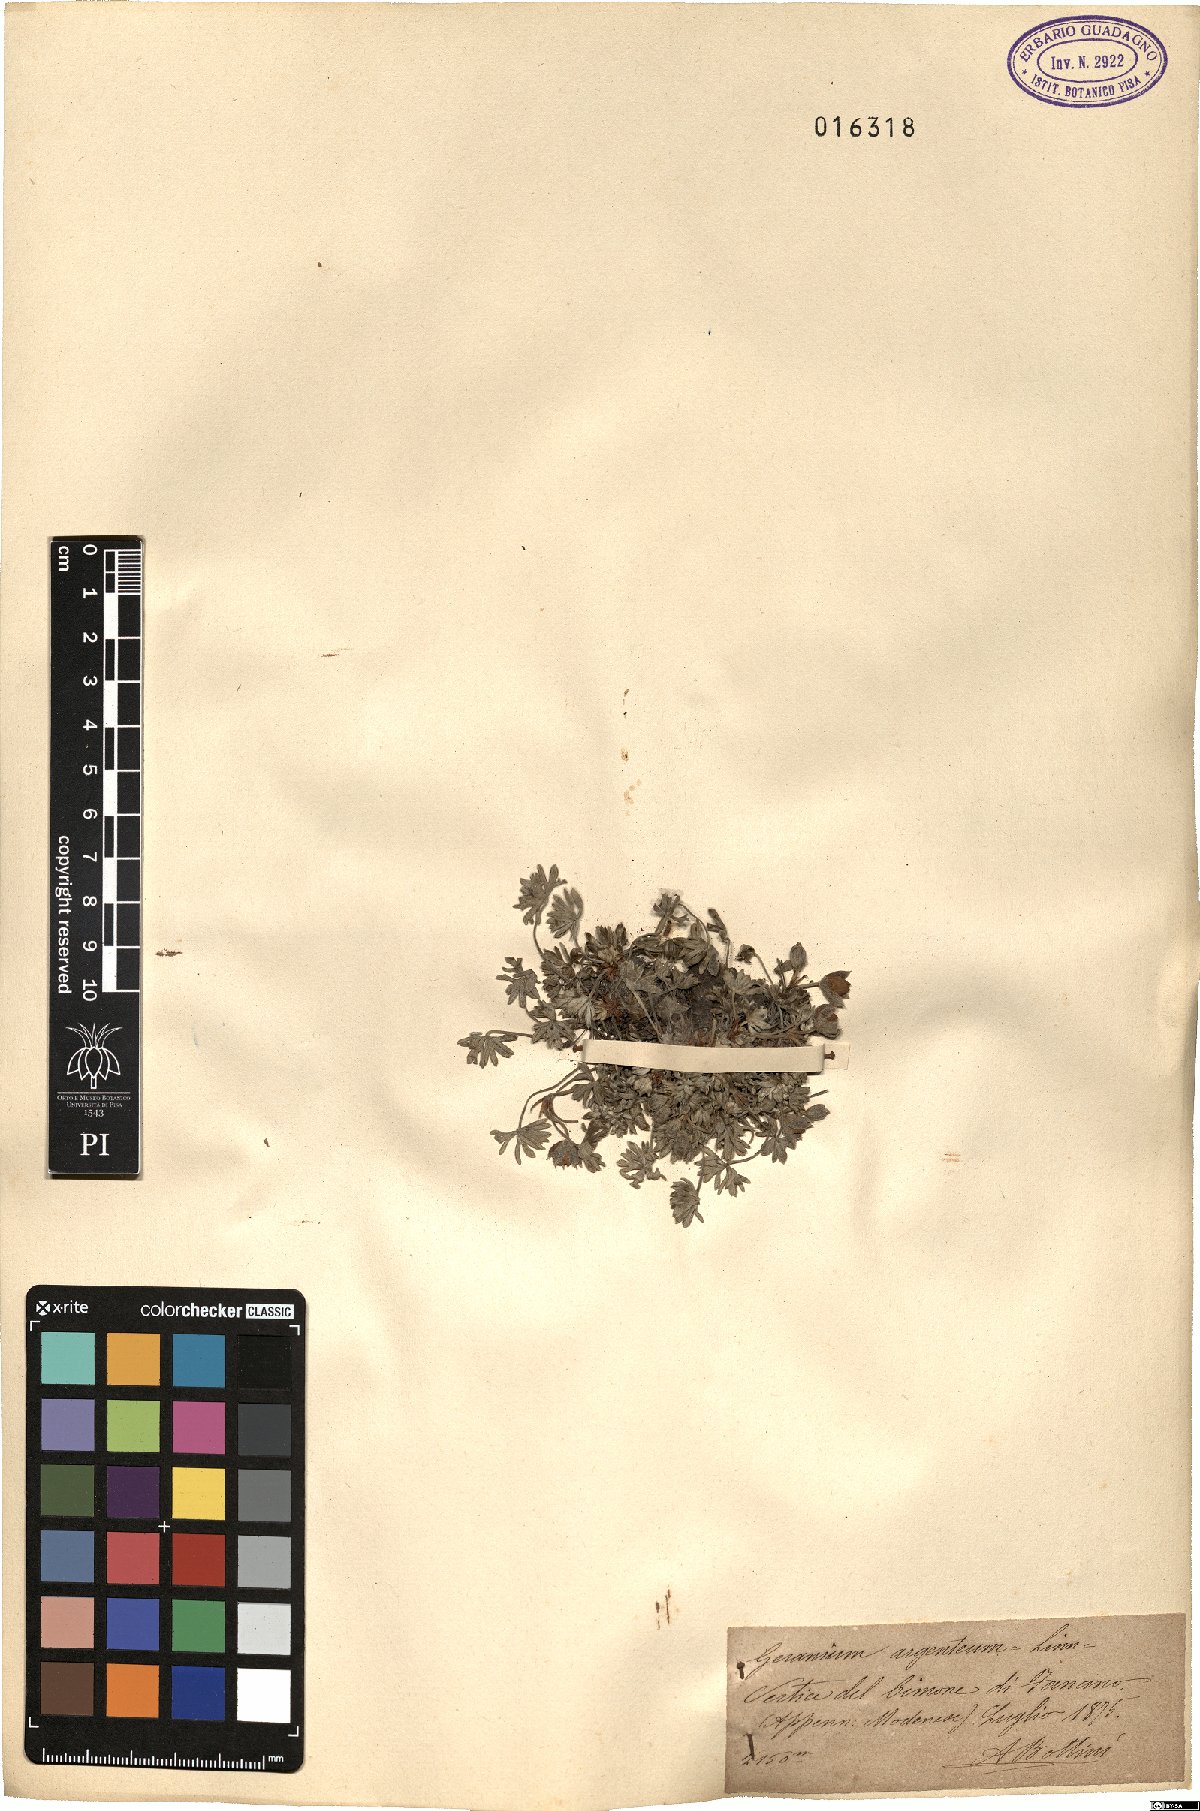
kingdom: Plantae
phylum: Tracheophyta
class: Magnoliopsida
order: Geraniales
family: Geraniaceae
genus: Geranium
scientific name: Geranium argenteum
